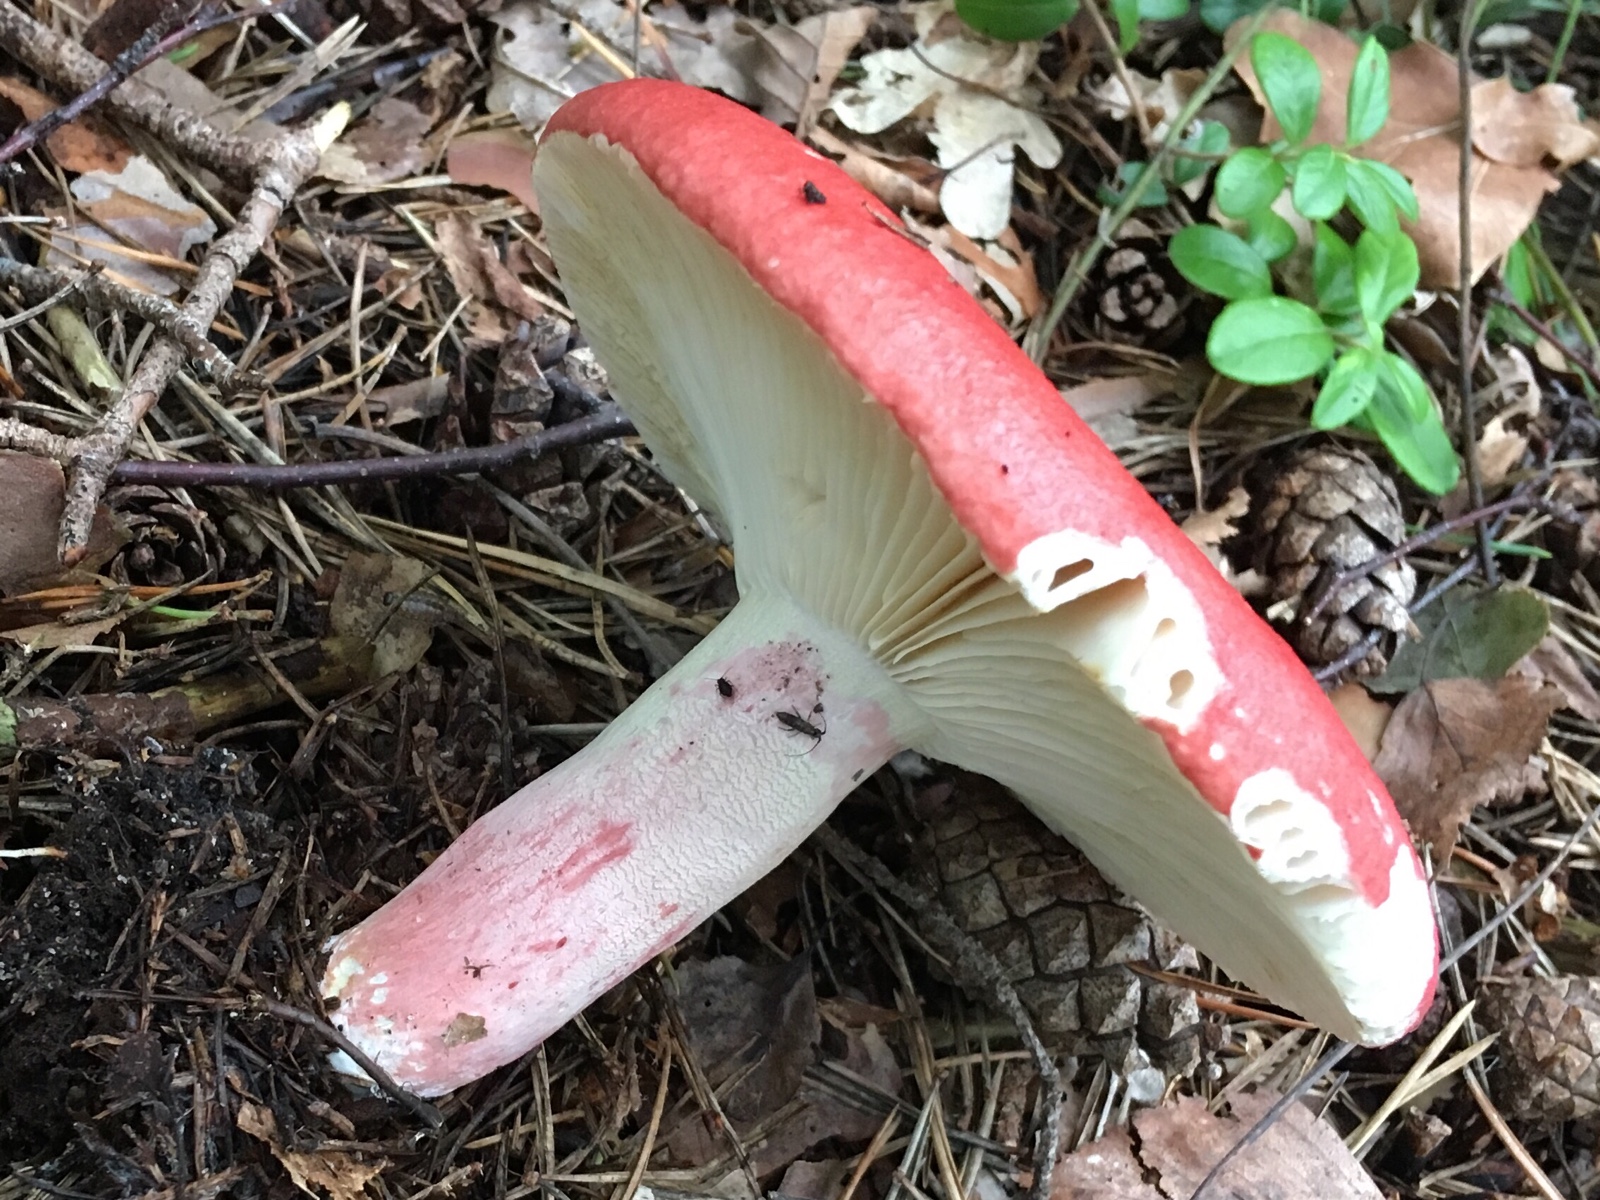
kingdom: Fungi
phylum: Basidiomycota
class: Agaricomycetes
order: Russulales
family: Russulaceae
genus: Russula
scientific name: Russula queletii
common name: Quélets skørhat
